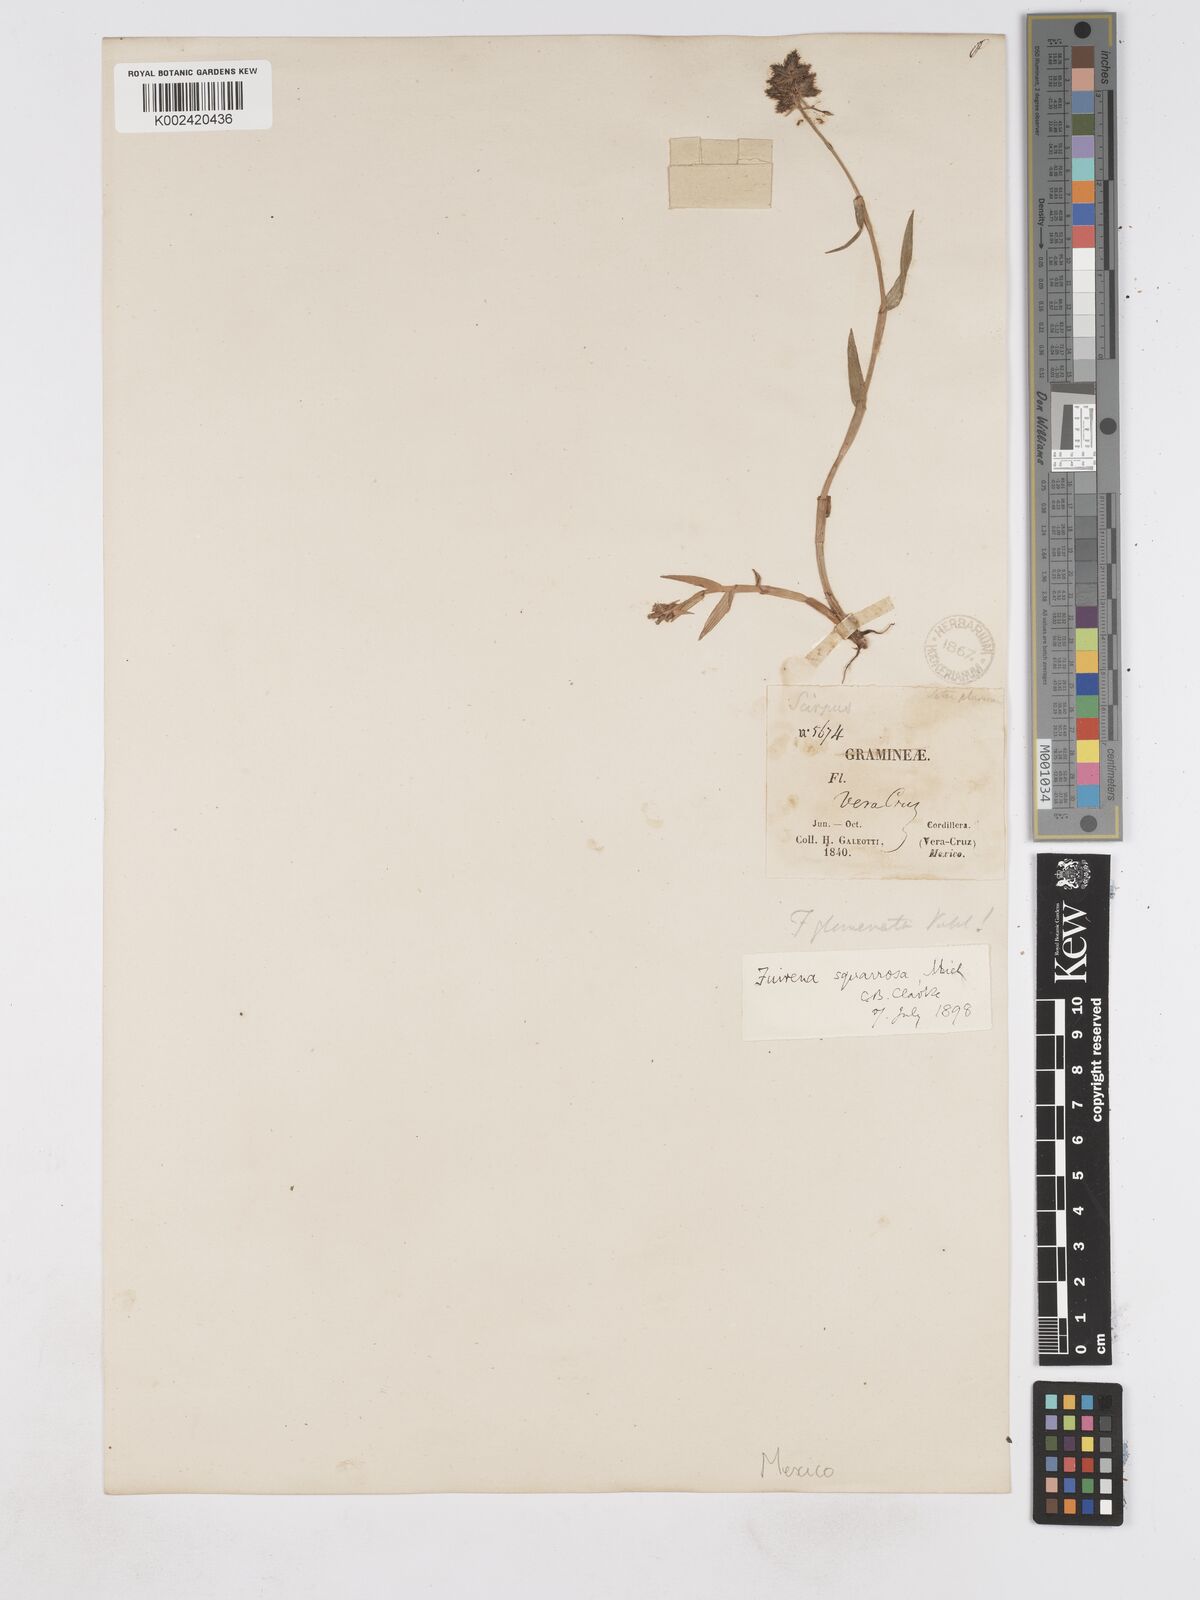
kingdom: Plantae
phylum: Tracheophyta
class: Liliopsida
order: Poales
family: Cyperaceae
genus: Fuirena
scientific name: Fuirena squarrosa
